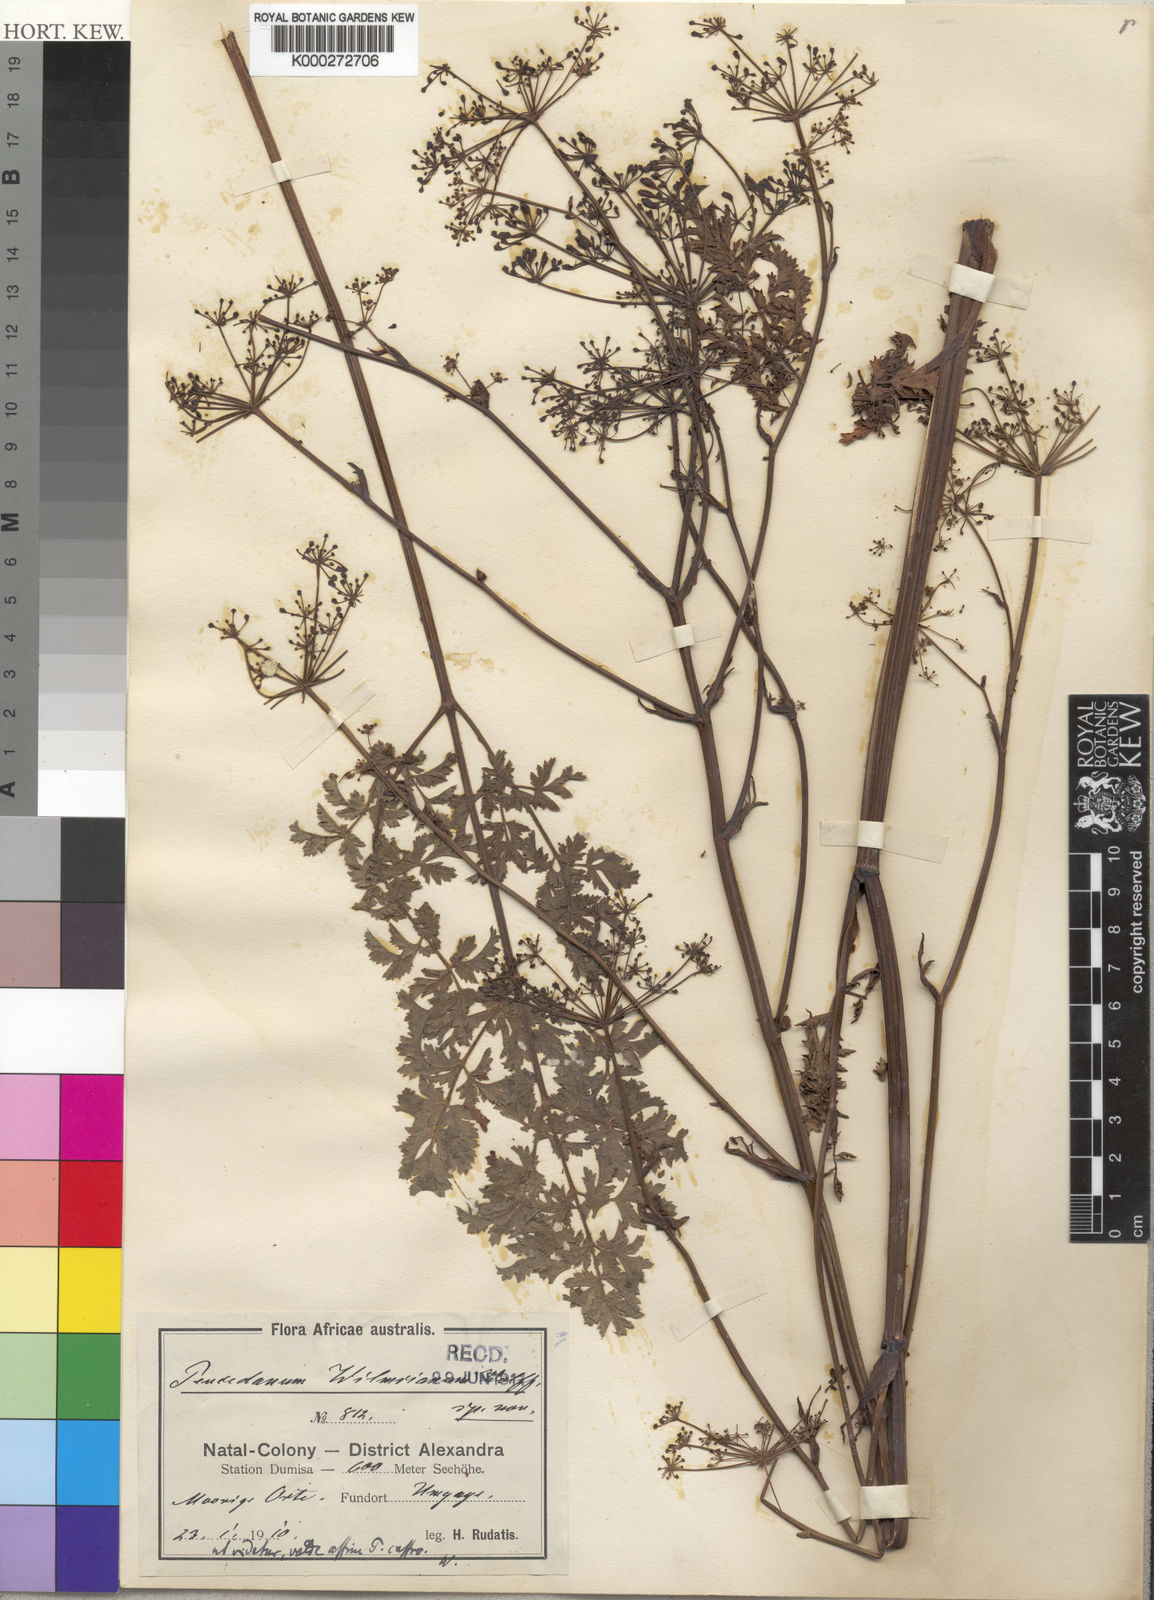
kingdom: Plantae
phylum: Tracheophyta
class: Magnoliopsida
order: Apiales
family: Apiaceae
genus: Anethum
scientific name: Anethum
